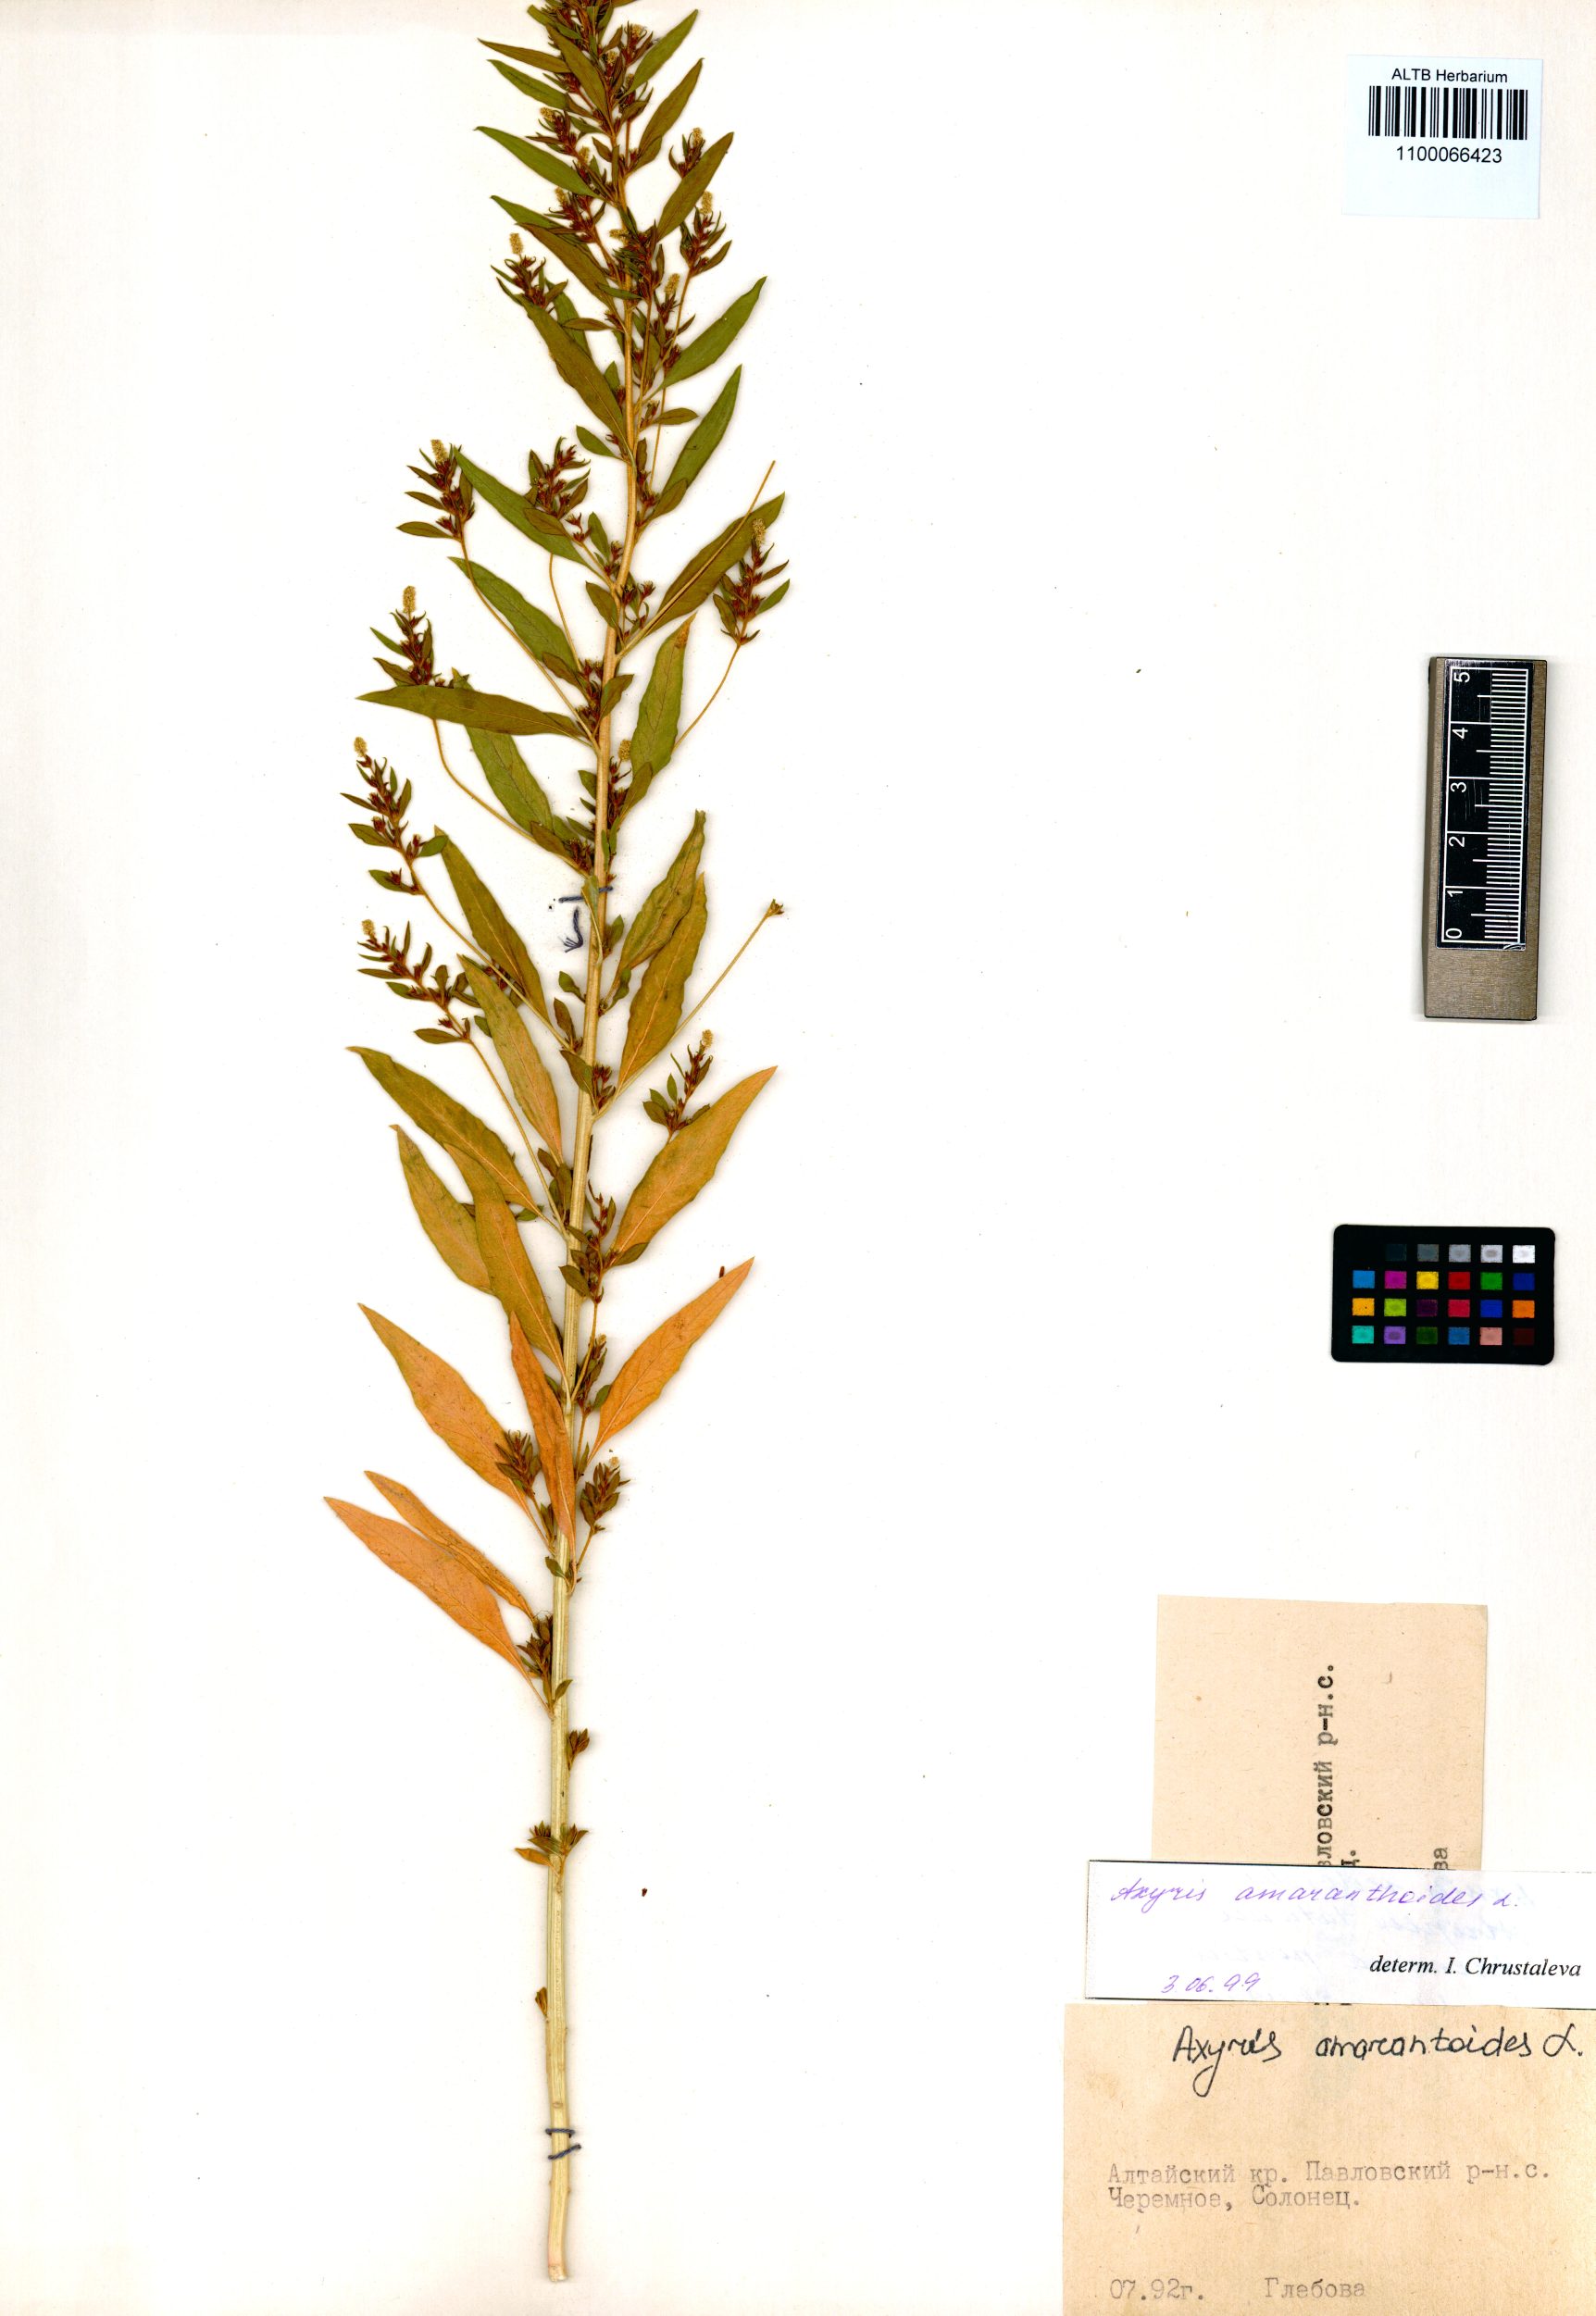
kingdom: Plantae
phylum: Tracheophyta
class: Magnoliopsida
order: Caryophyllales
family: Amaranthaceae
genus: Axyris
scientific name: Axyris amaranthoides
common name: Russian pigweed
